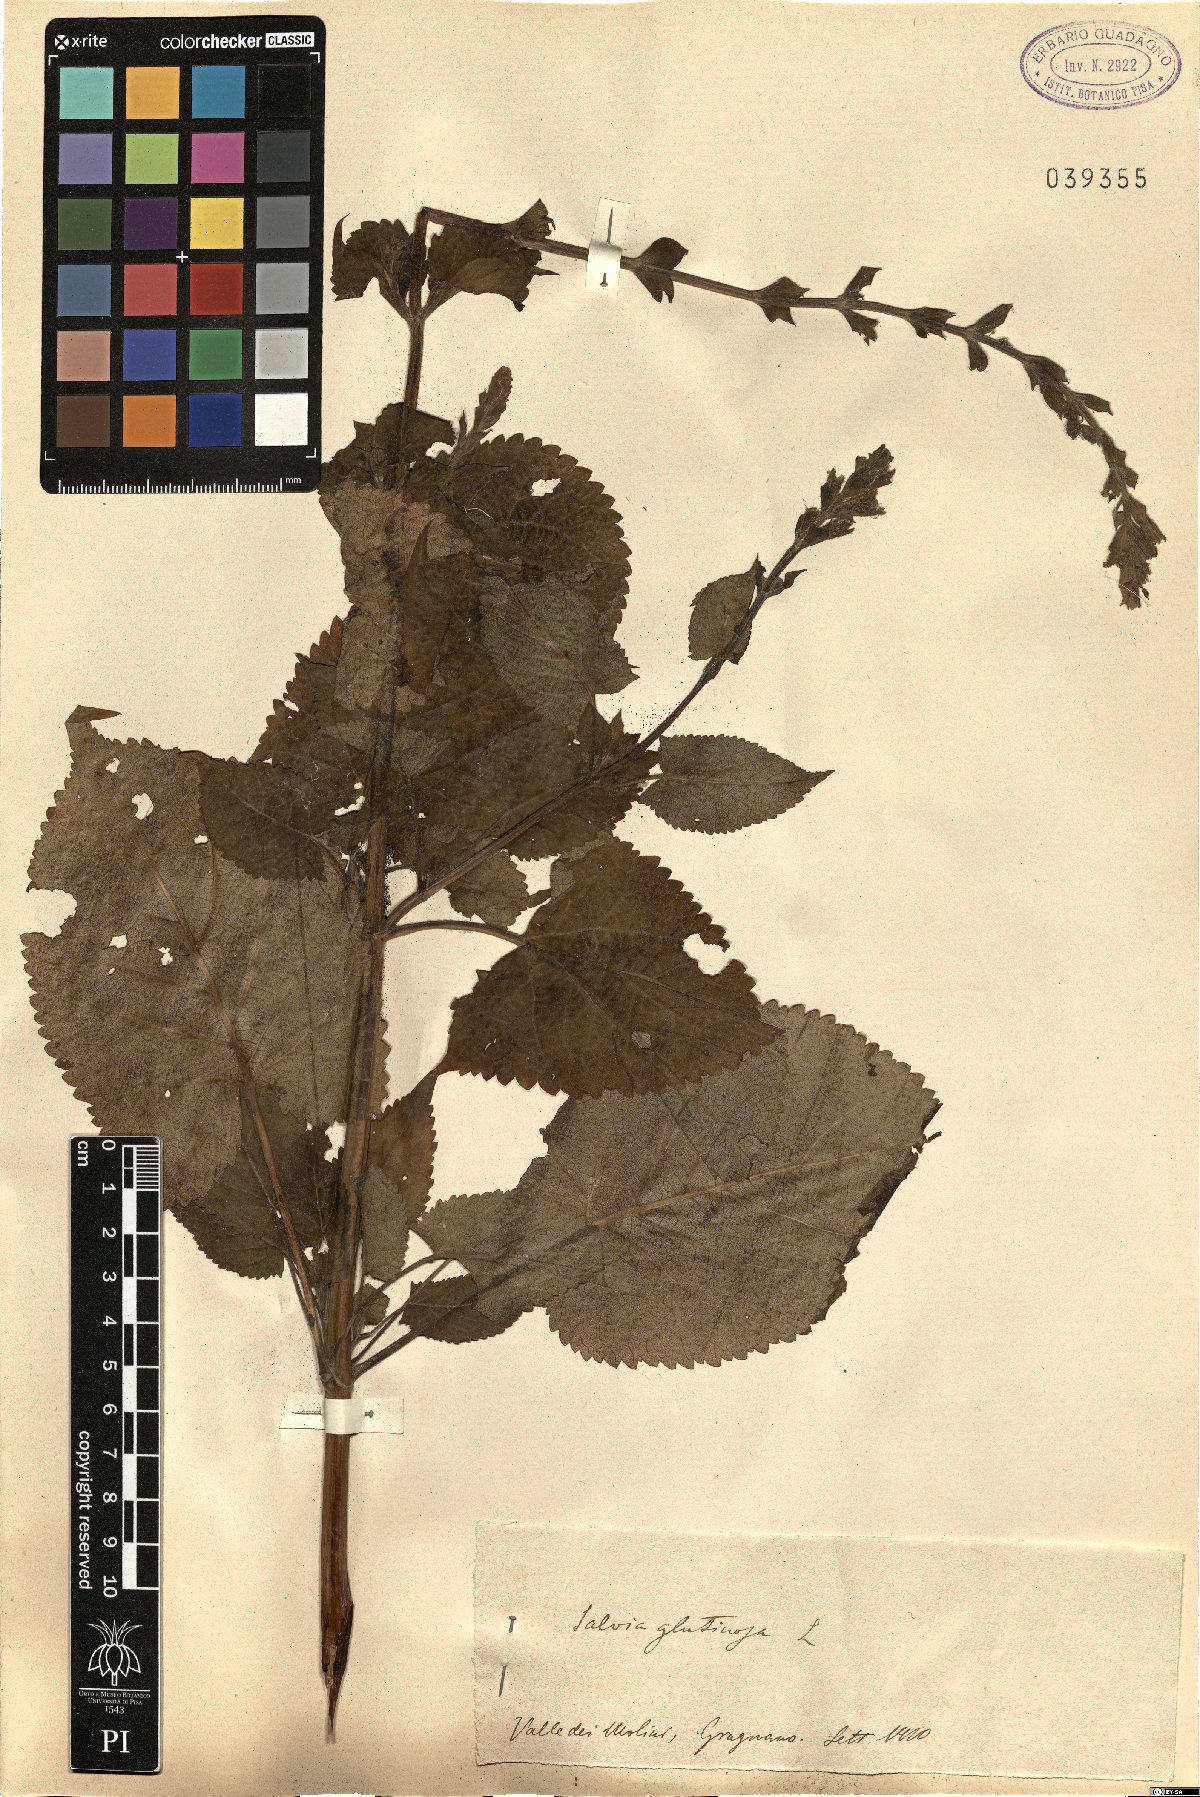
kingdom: Plantae
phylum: Tracheophyta
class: Magnoliopsida
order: Lamiales
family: Lamiaceae
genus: Salvia
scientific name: Salvia glutinosa
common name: Sticky clary
